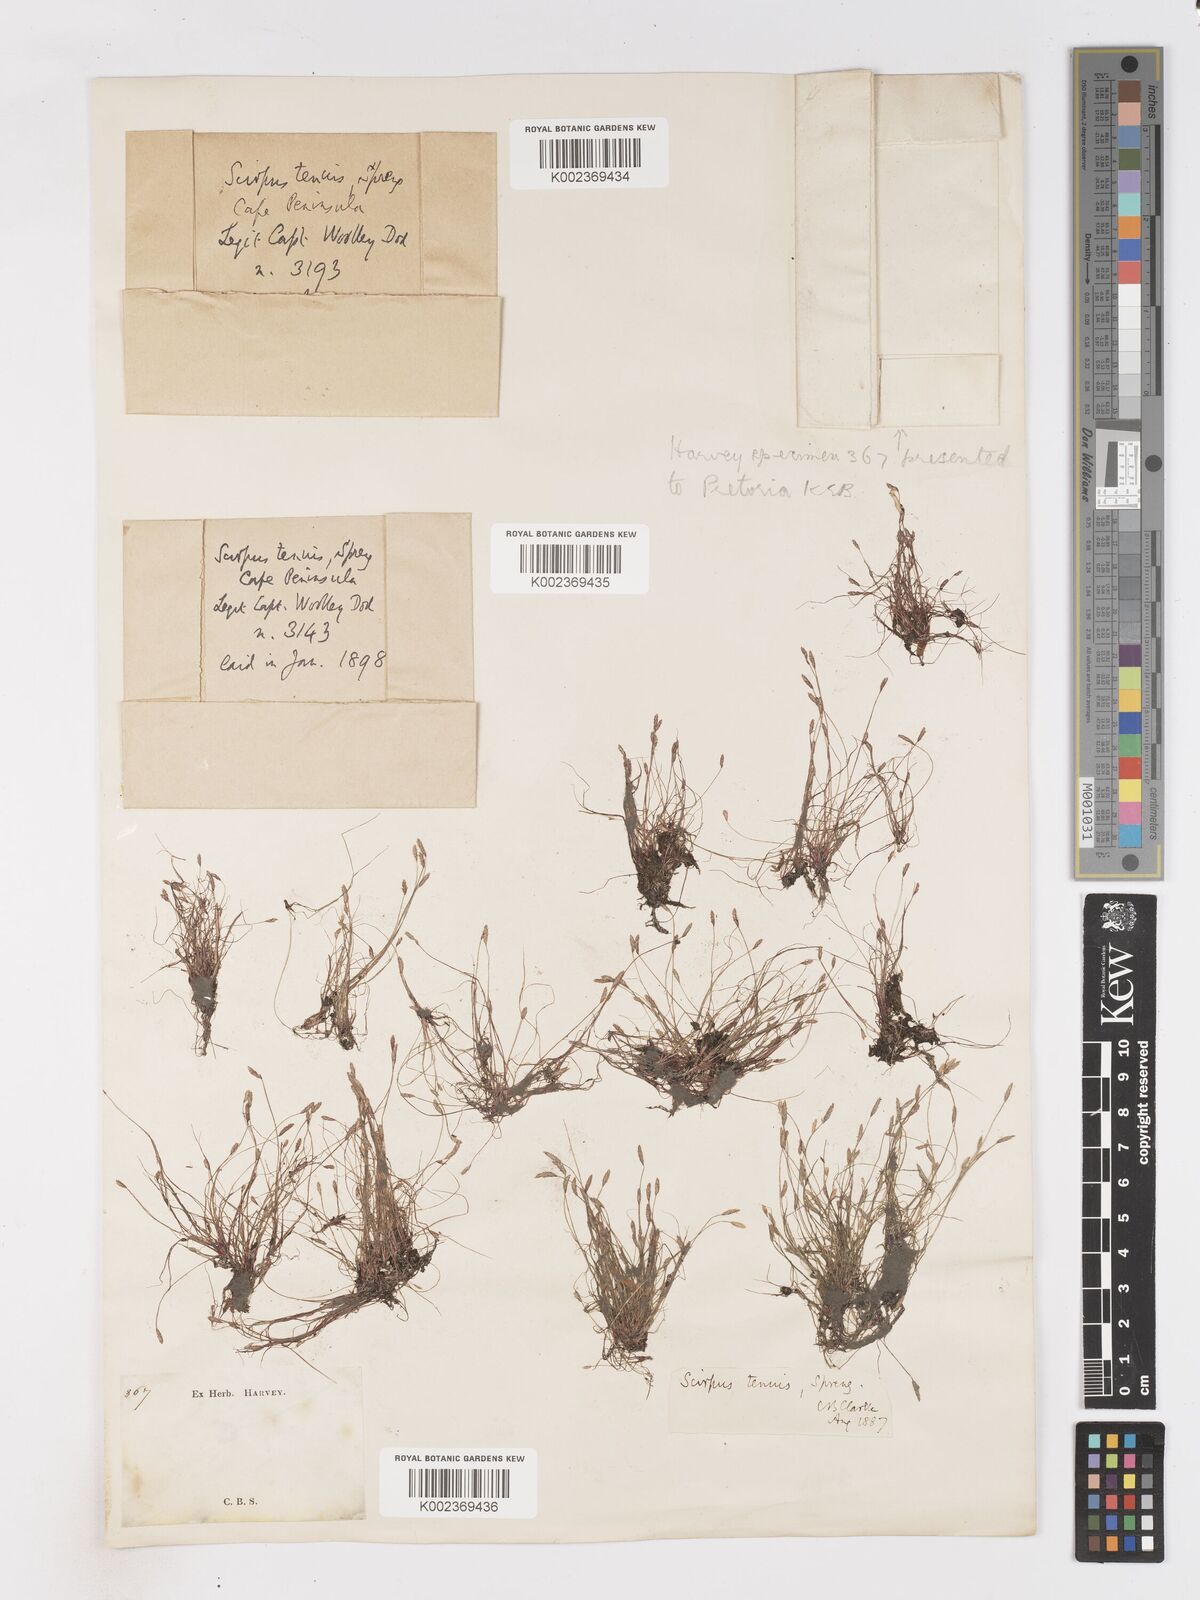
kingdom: Plantae
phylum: Tracheophyta
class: Liliopsida
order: Poales
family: Cyperaceae
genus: Isolepis
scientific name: Isolepis tenuissima
